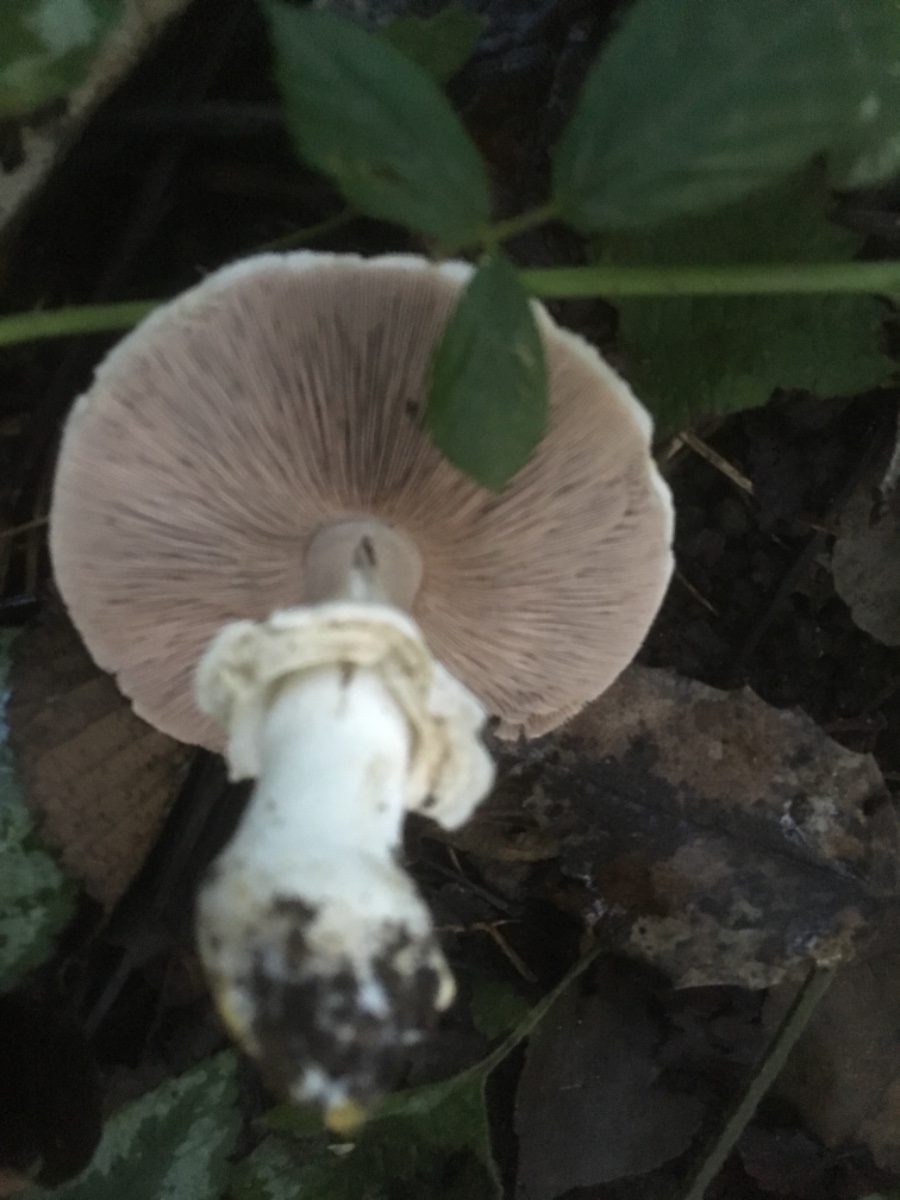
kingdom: Fungi
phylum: Basidiomycota
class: Agaricomycetes
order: Agaricales
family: Agaricaceae
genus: Agaricus
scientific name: Agaricus xanthodermus
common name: karbol-champignon
